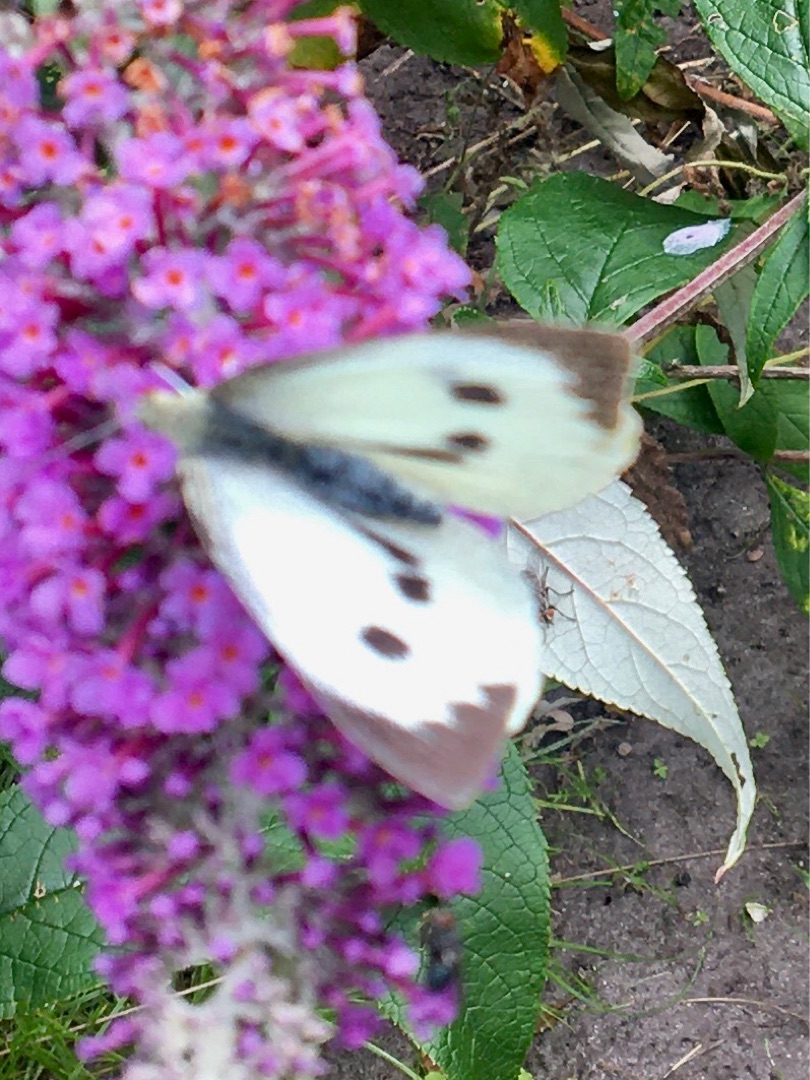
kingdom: Animalia
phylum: Arthropoda
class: Insecta
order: Lepidoptera
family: Pieridae
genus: Pieris
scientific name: Pieris brassicae
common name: Stor kålsommerfugl
